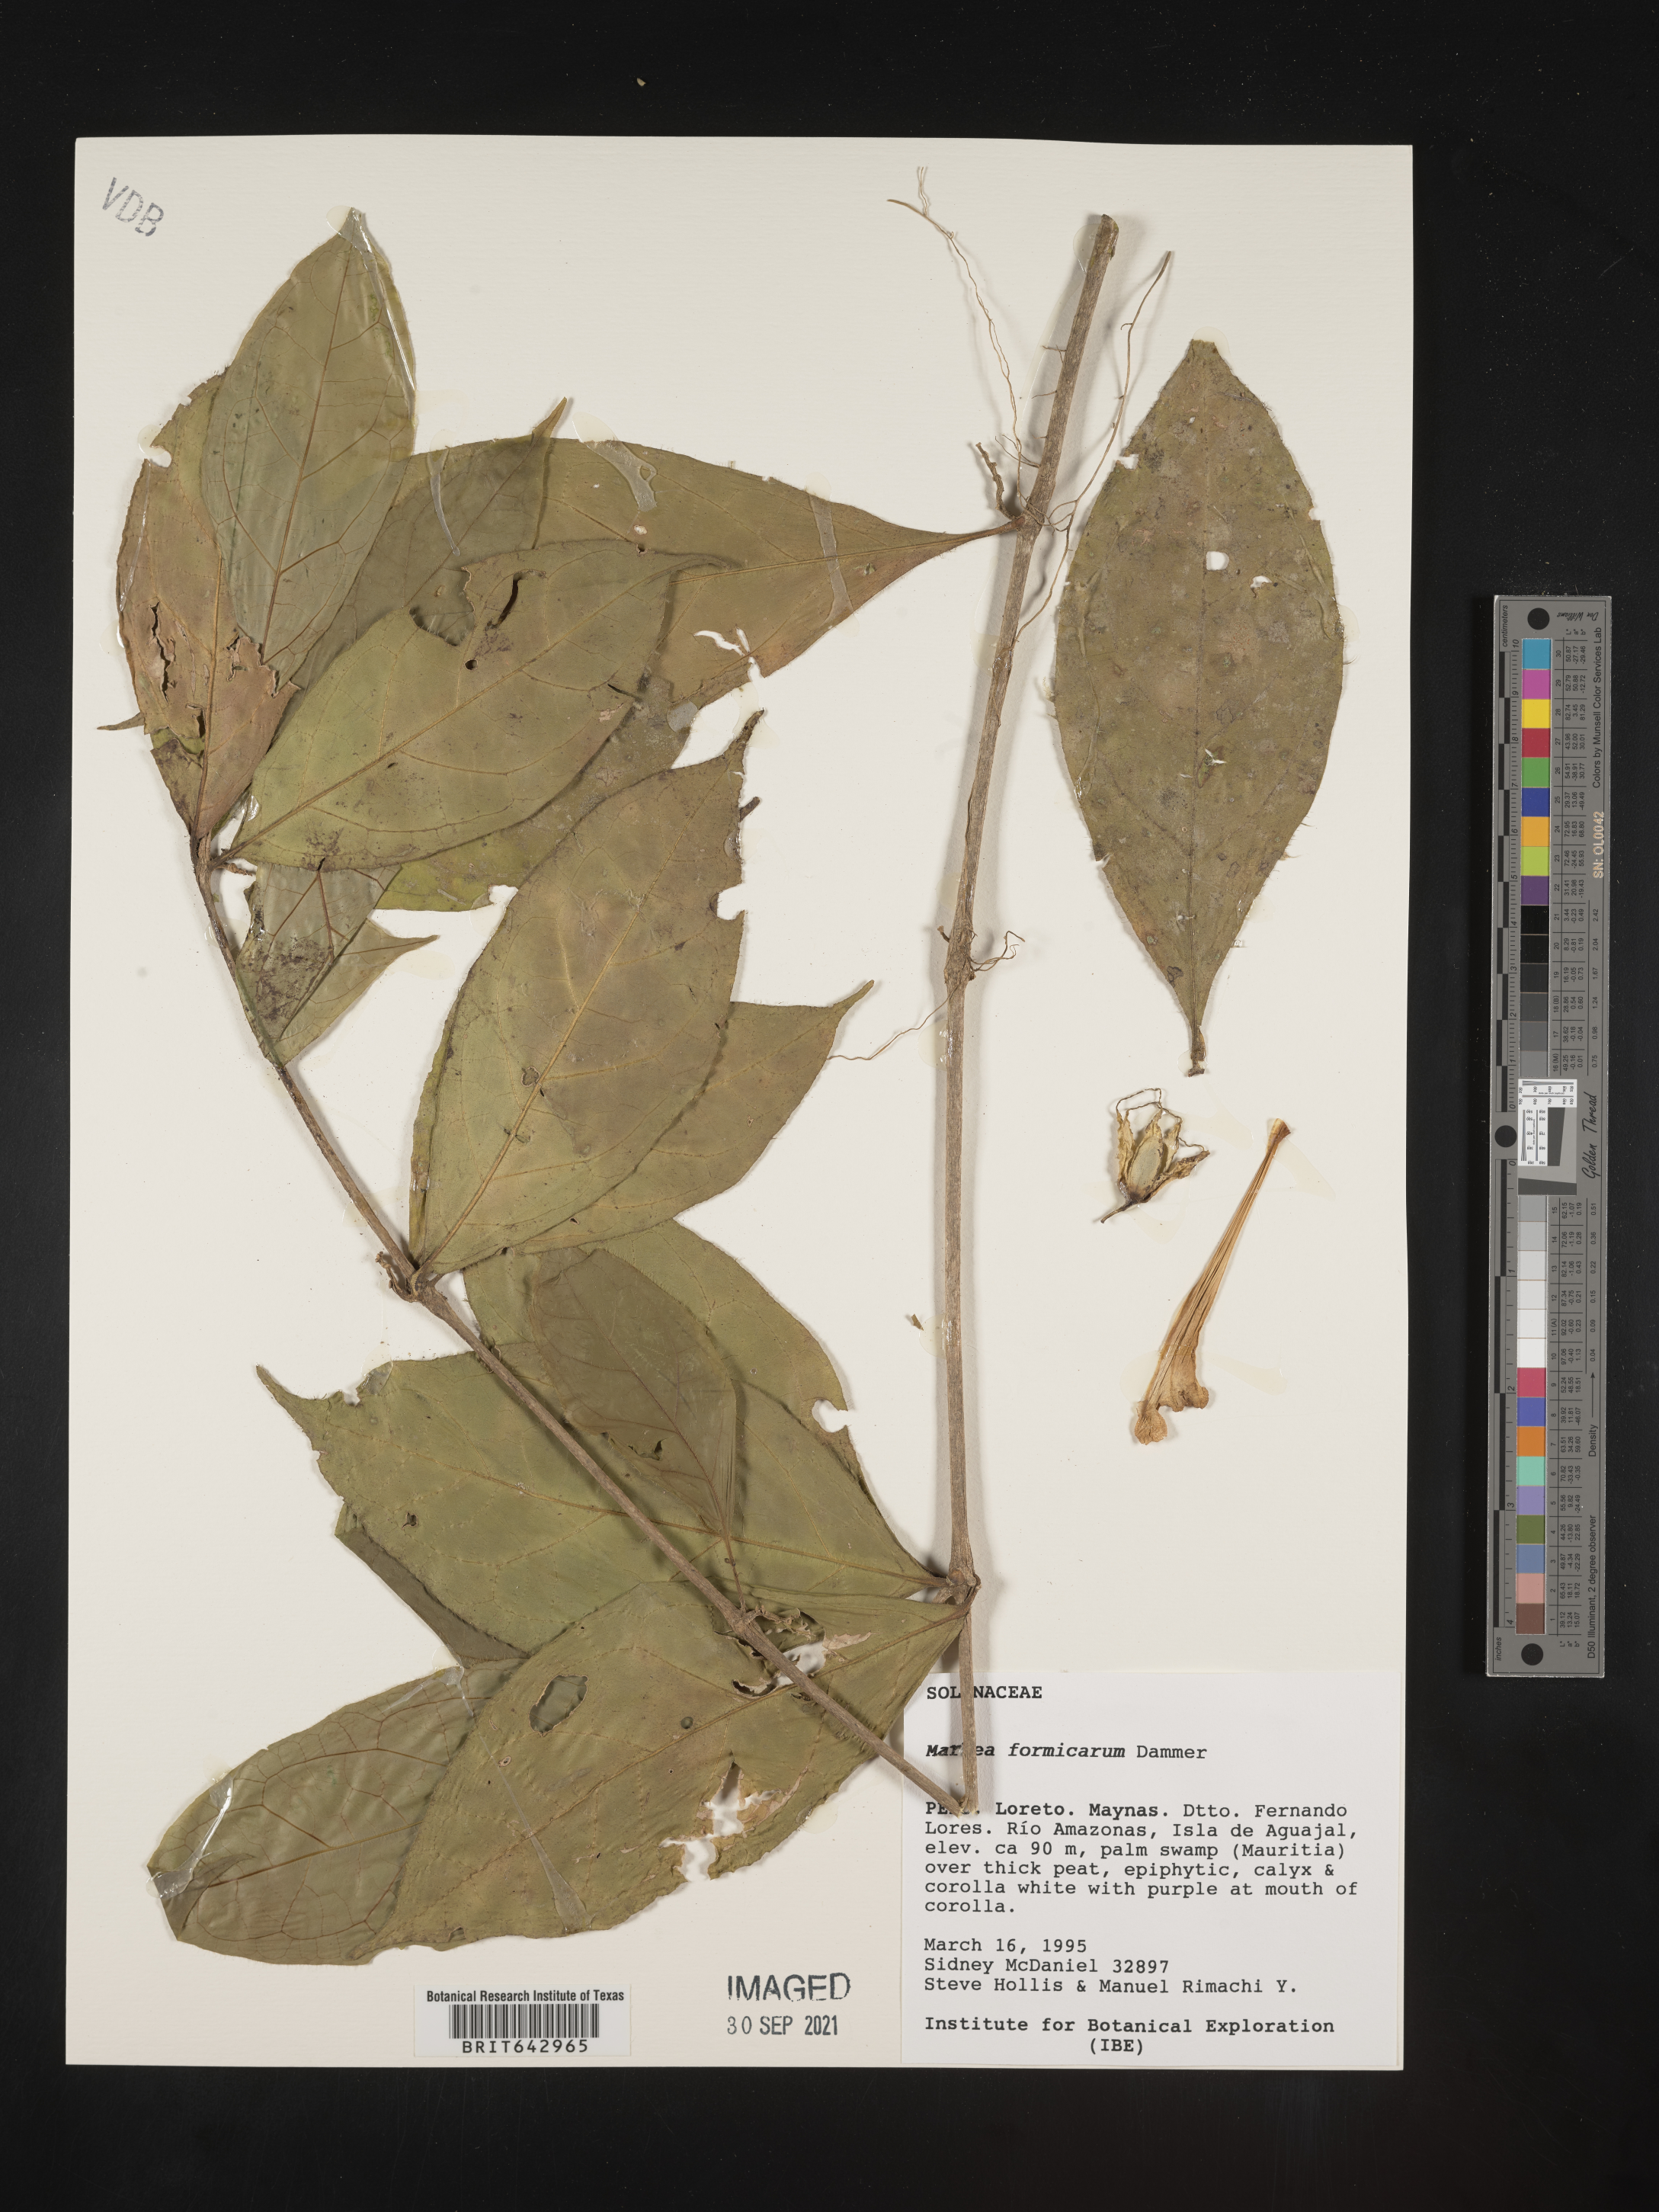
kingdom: Plantae
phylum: Tracheophyta
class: Magnoliopsida
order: Solanales
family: Solanaceae
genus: Markea
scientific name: Markea
